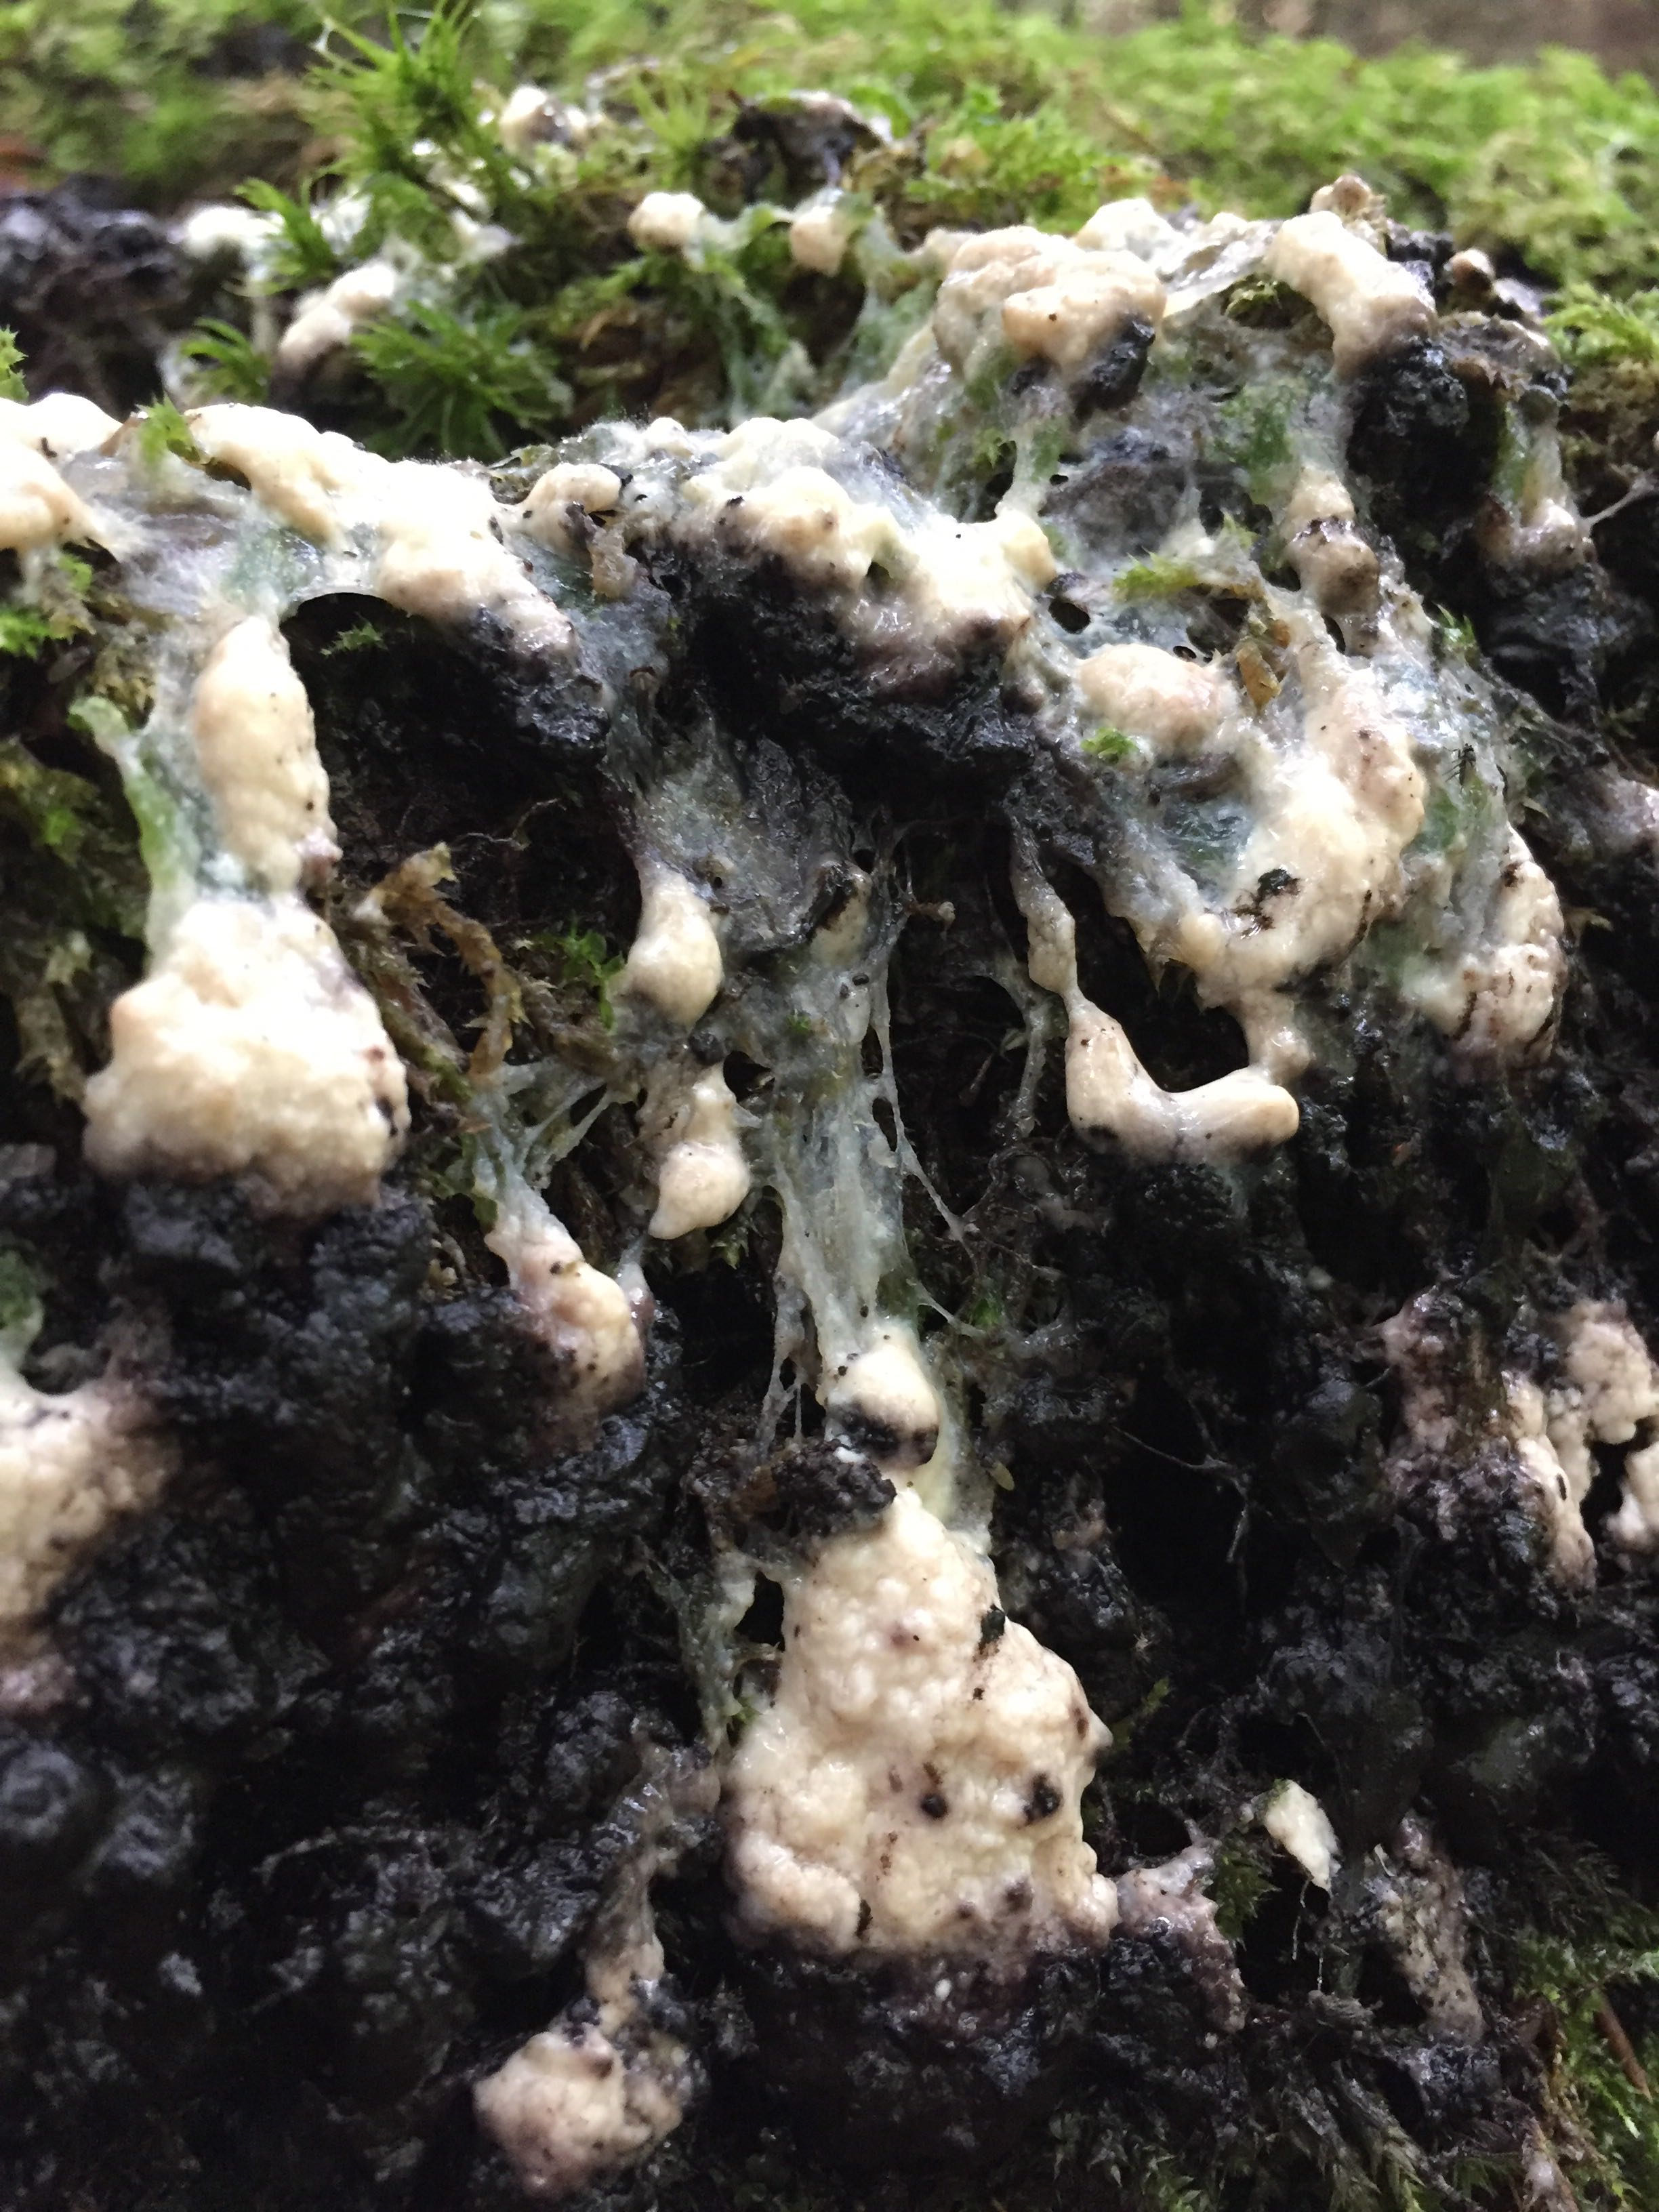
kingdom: Protozoa
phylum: Mycetozoa
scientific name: Mycetozoa
